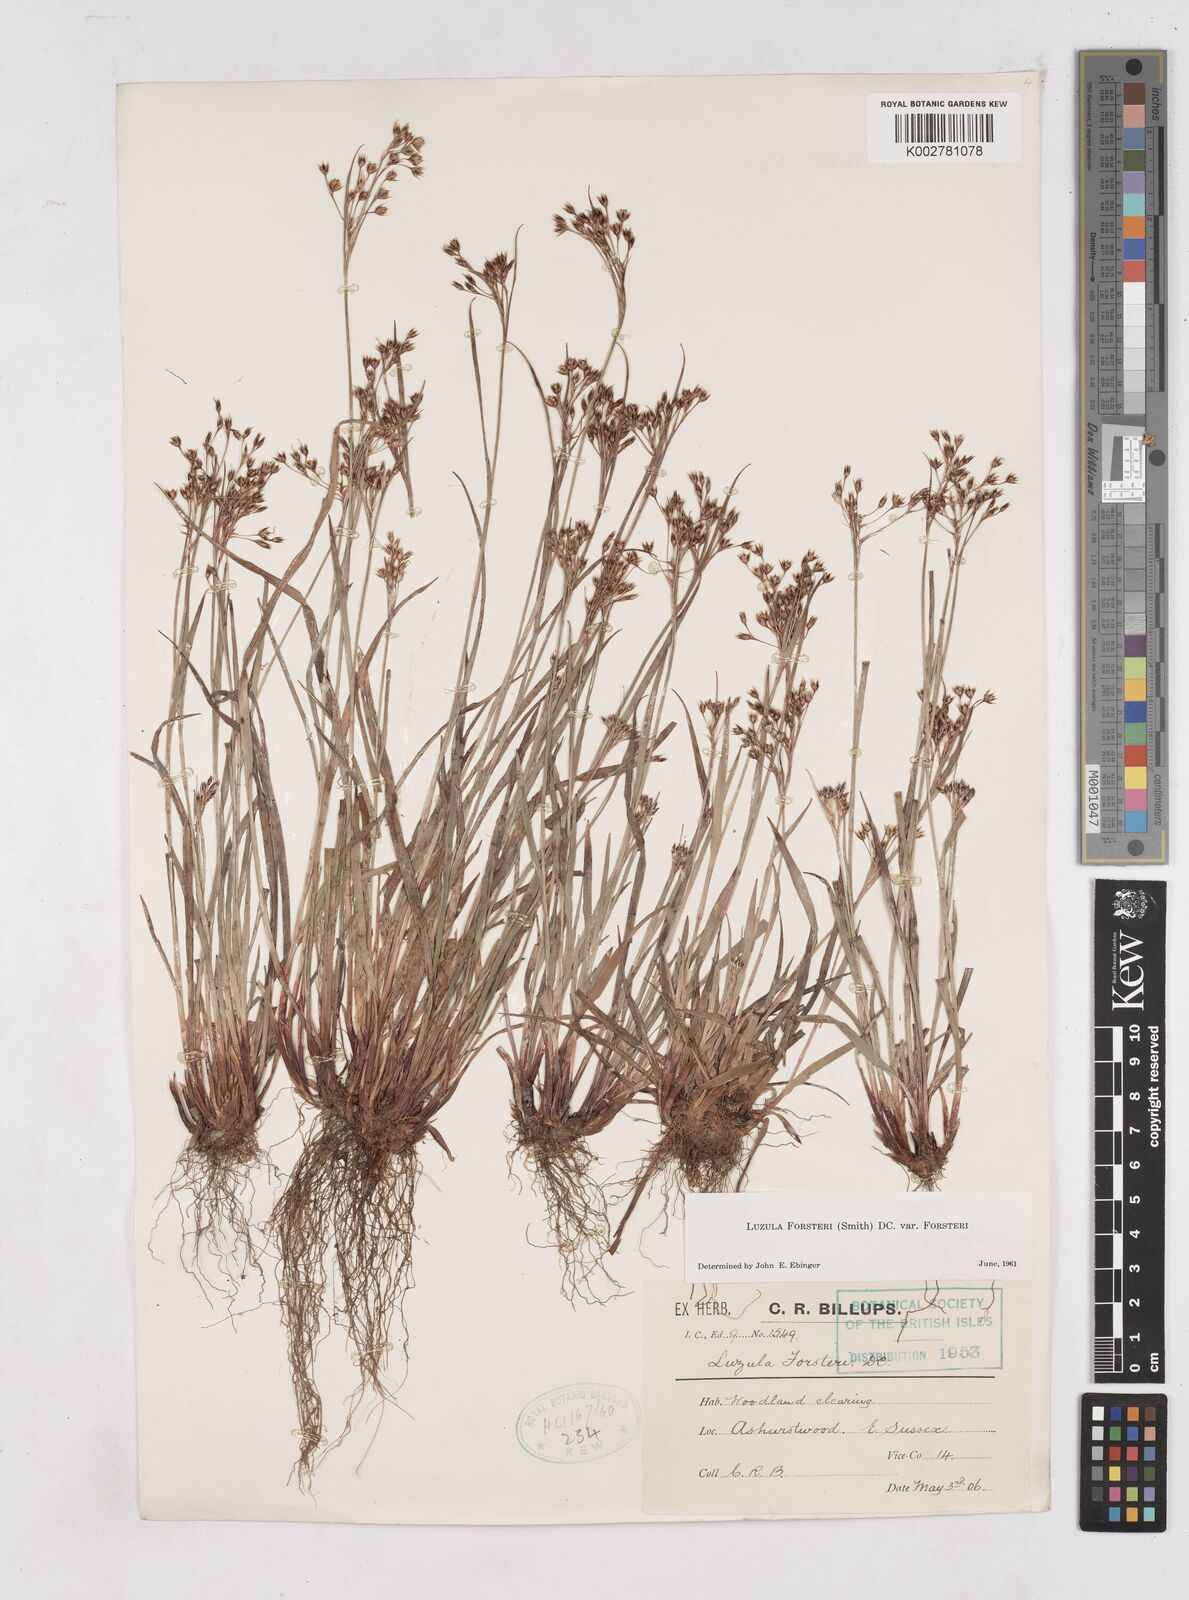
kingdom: Plantae
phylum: Tracheophyta
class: Liliopsida
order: Poales
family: Juncaceae
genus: Luzula
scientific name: Luzula forsteri
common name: Southern wood-rush
